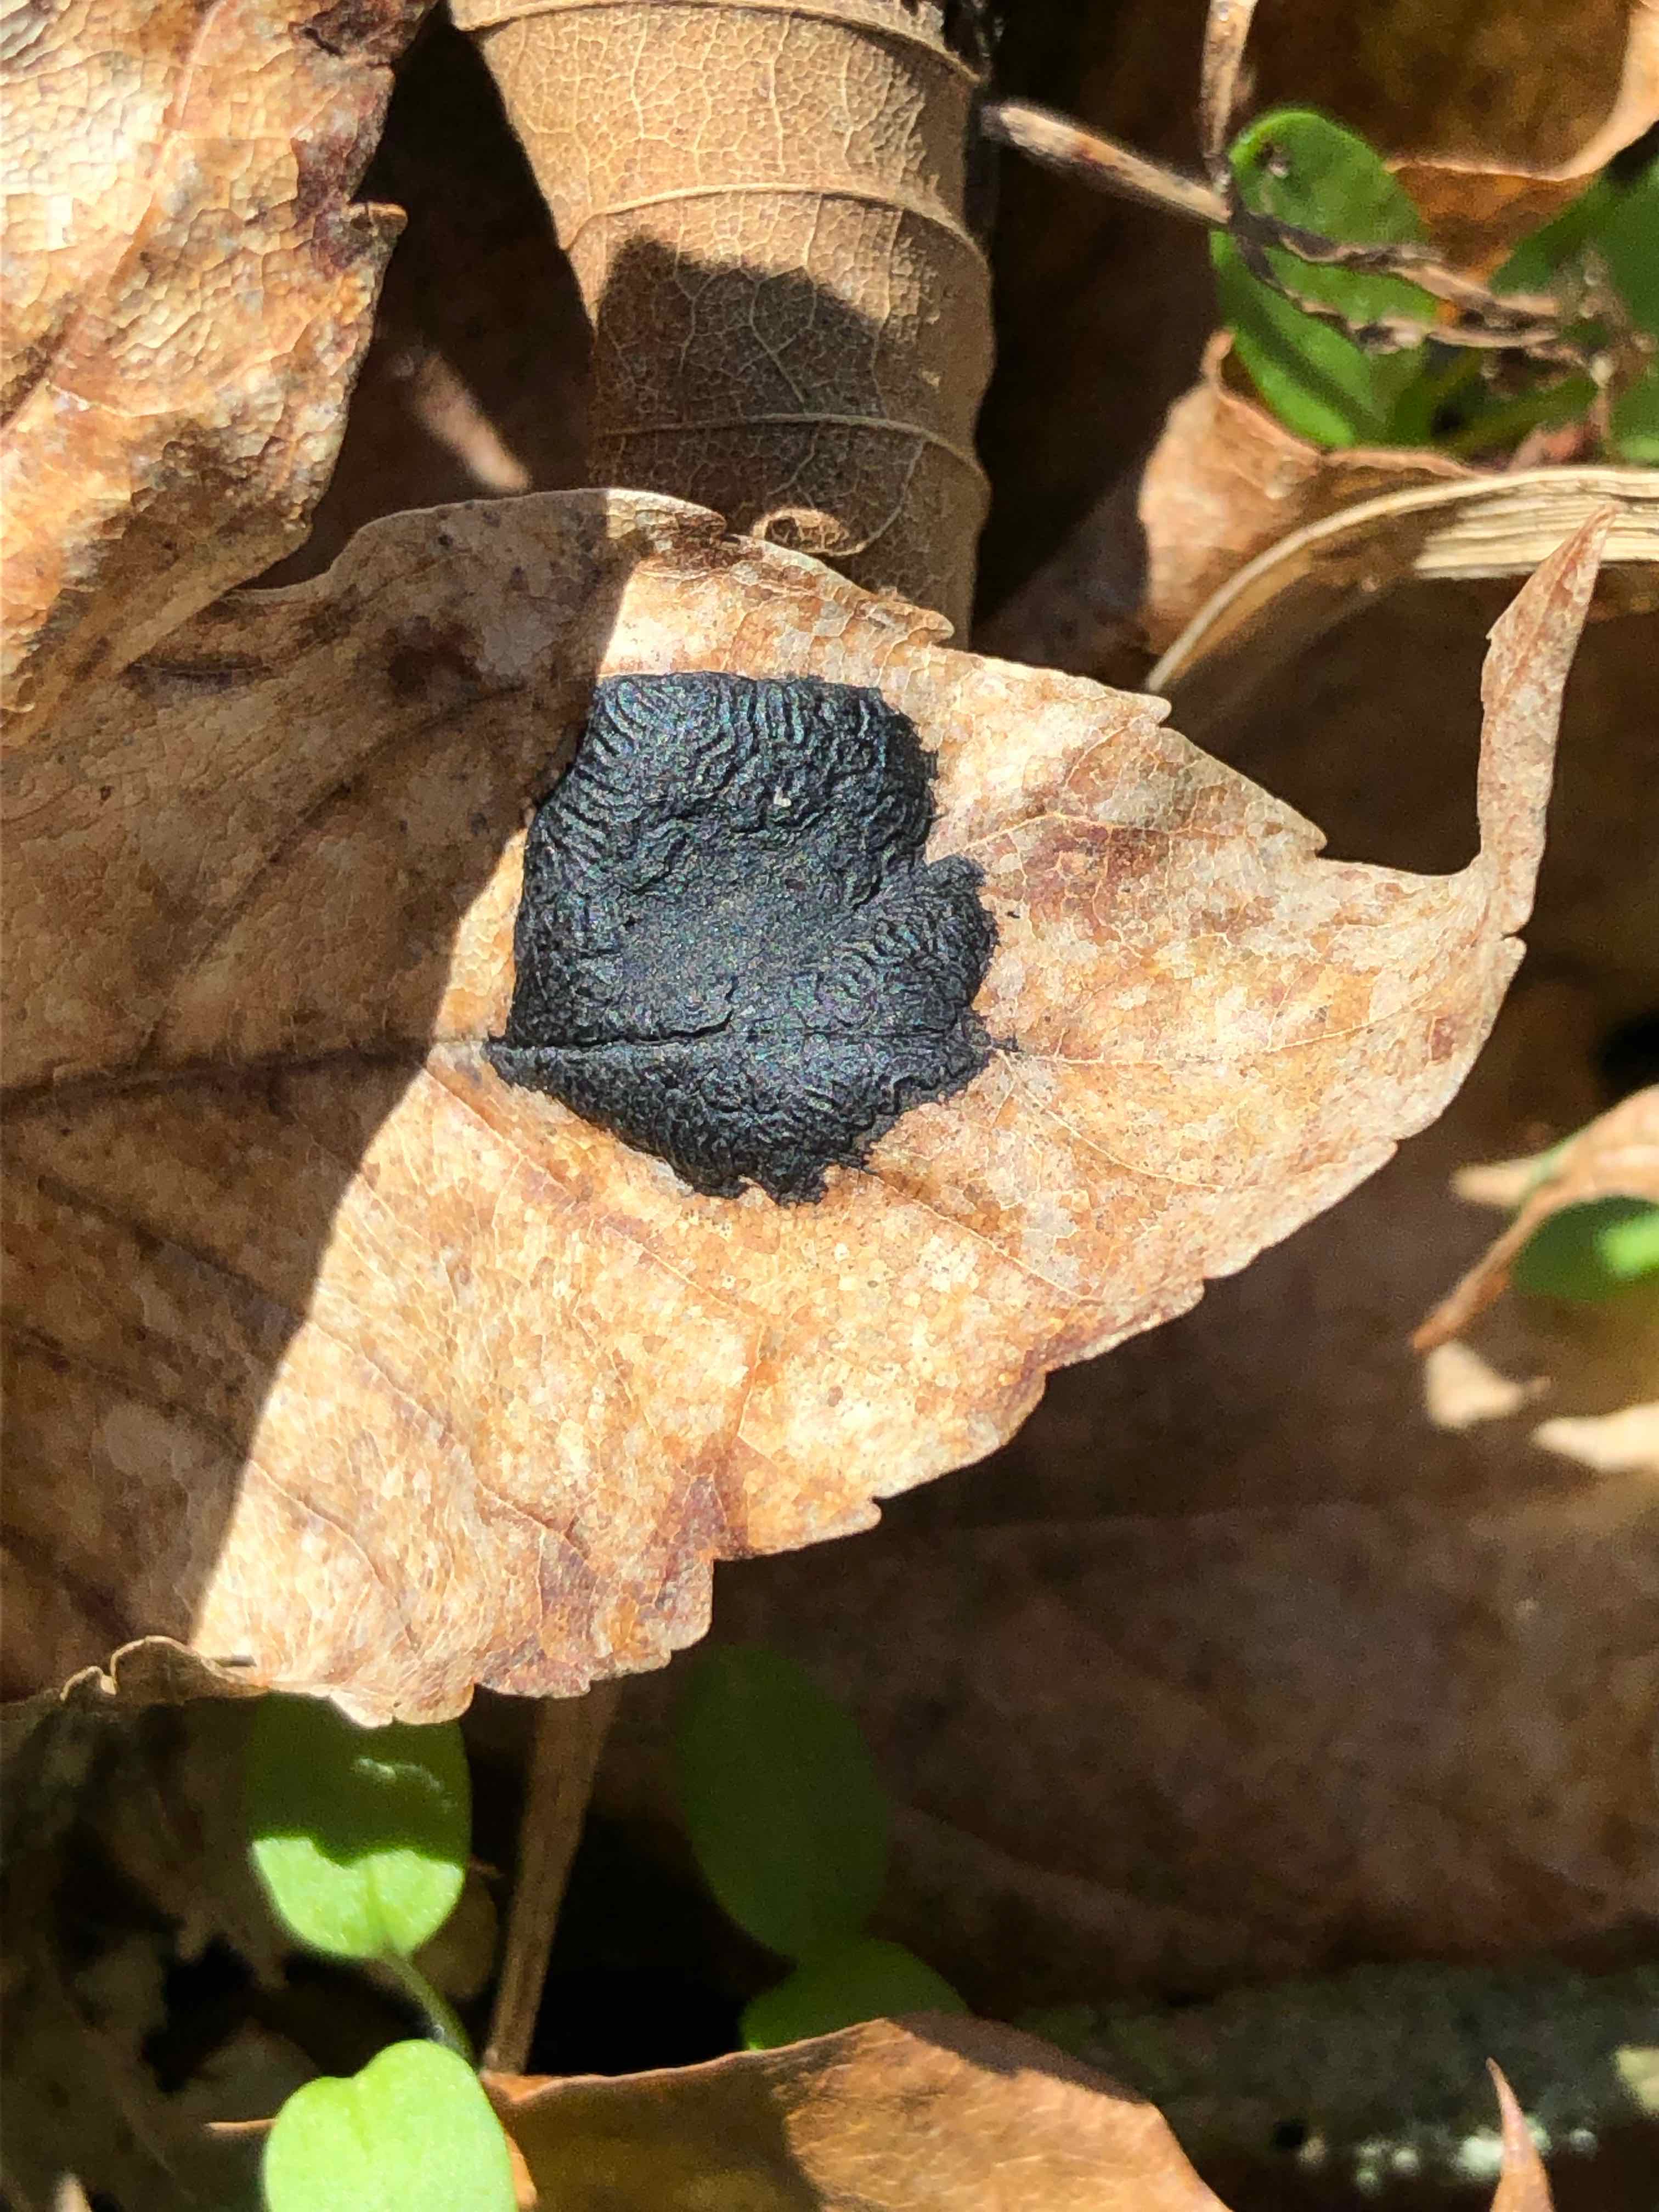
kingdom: Fungi
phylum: Ascomycota
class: Leotiomycetes
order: Rhytismatales
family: Rhytismataceae
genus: Rhytisma
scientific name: Rhytisma acerinum
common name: ahorn-rynkeplet
